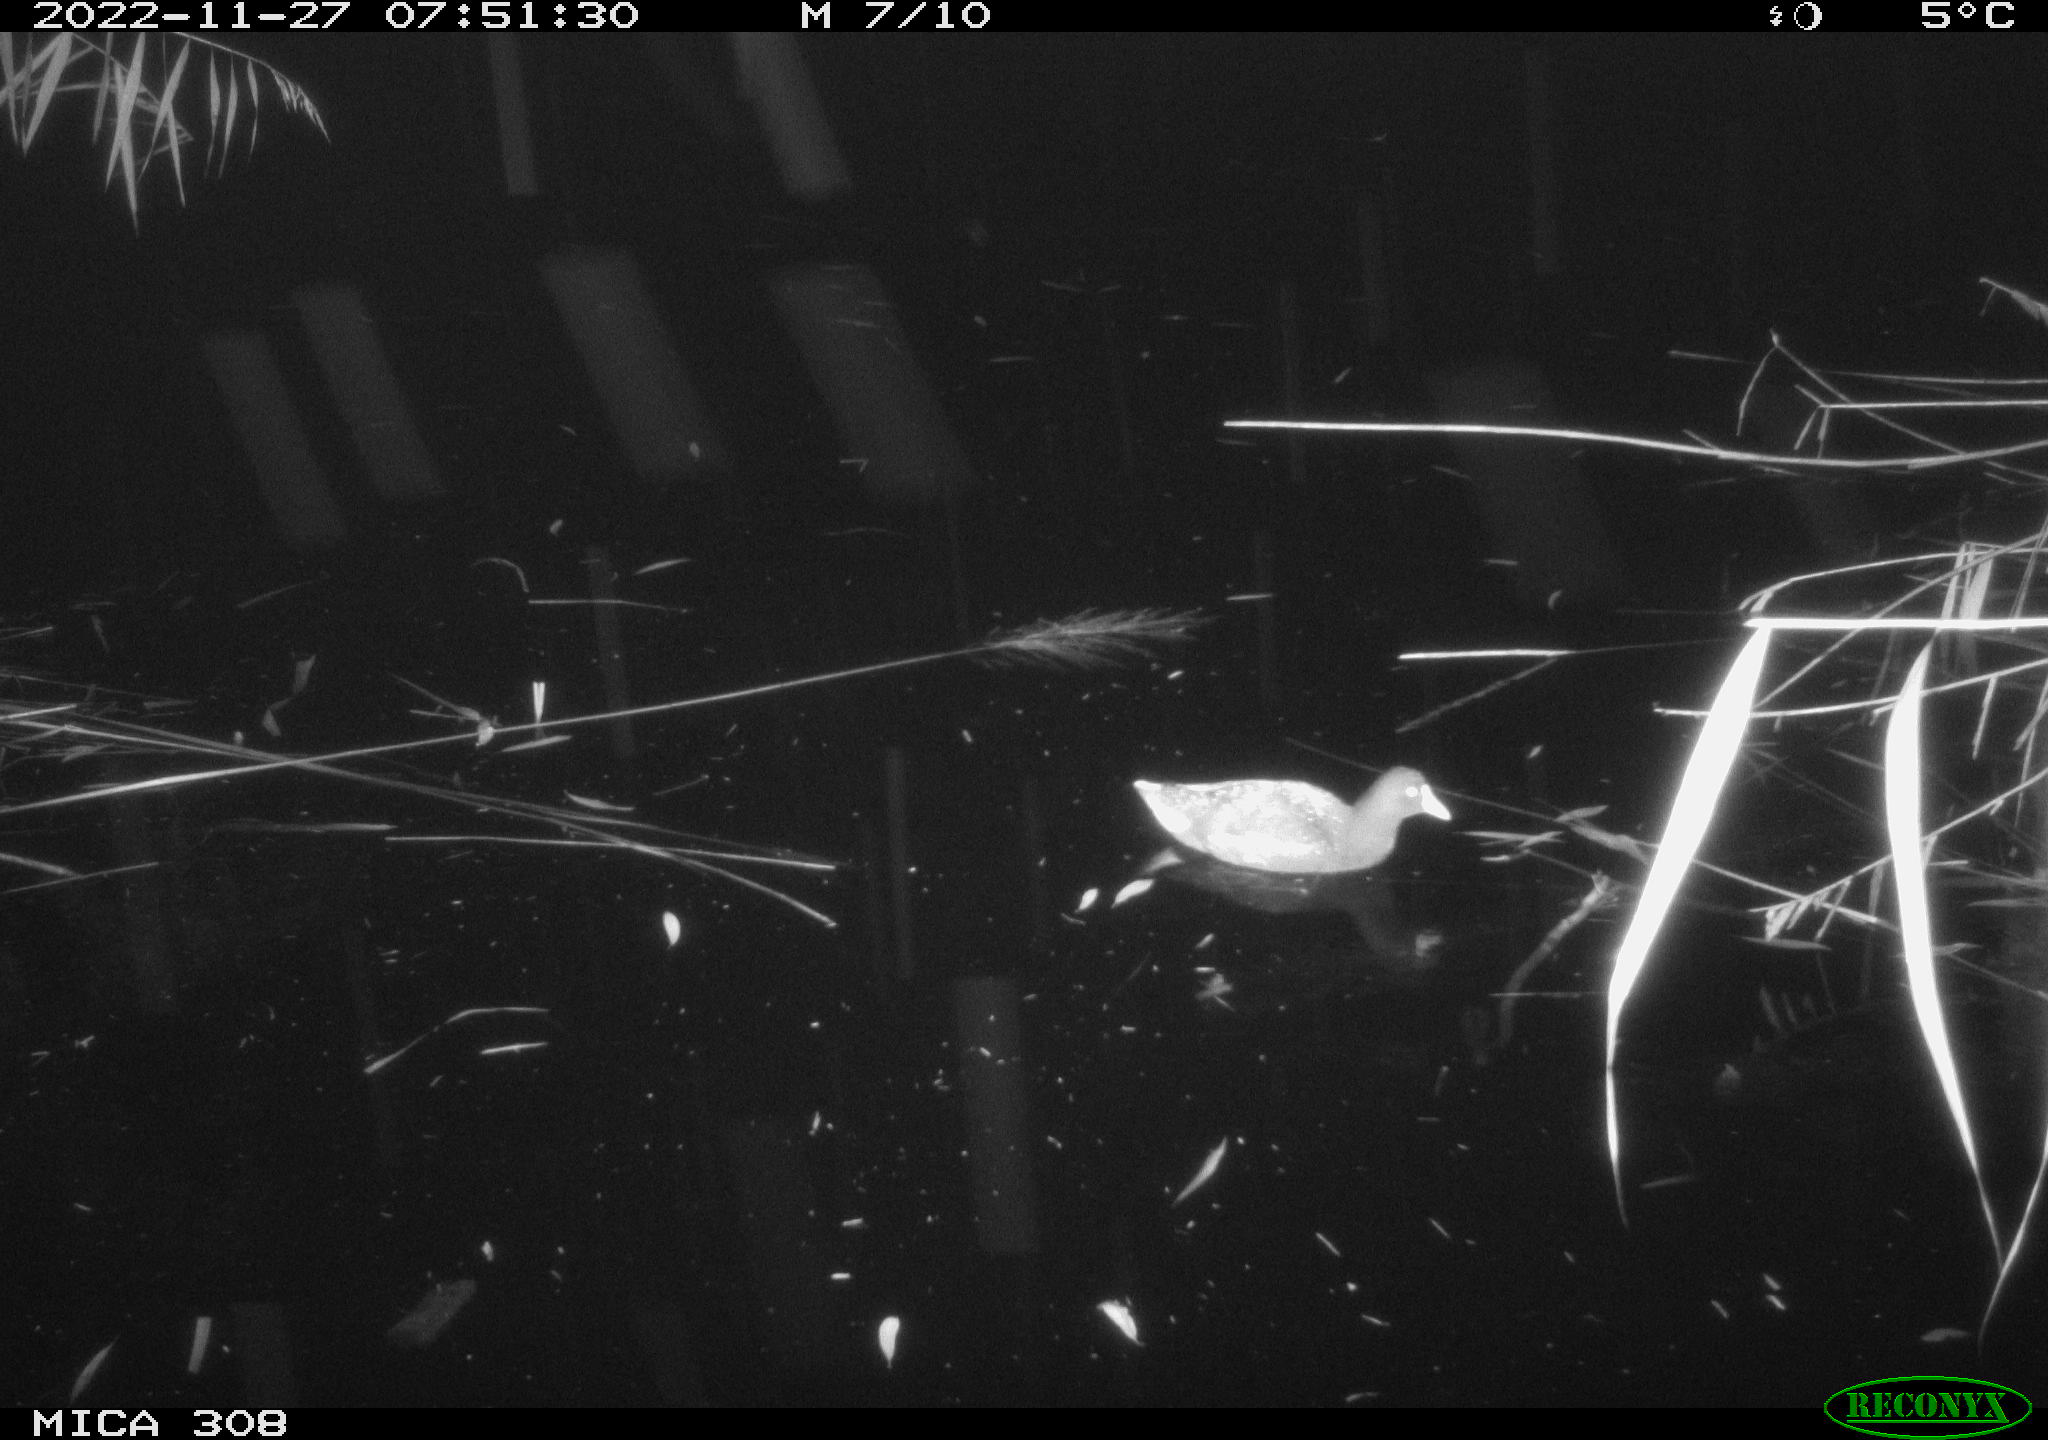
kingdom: Animalia
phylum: Chordata
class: Aves
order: Anseriformes
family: Anatidae
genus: Anas
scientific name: Anas
